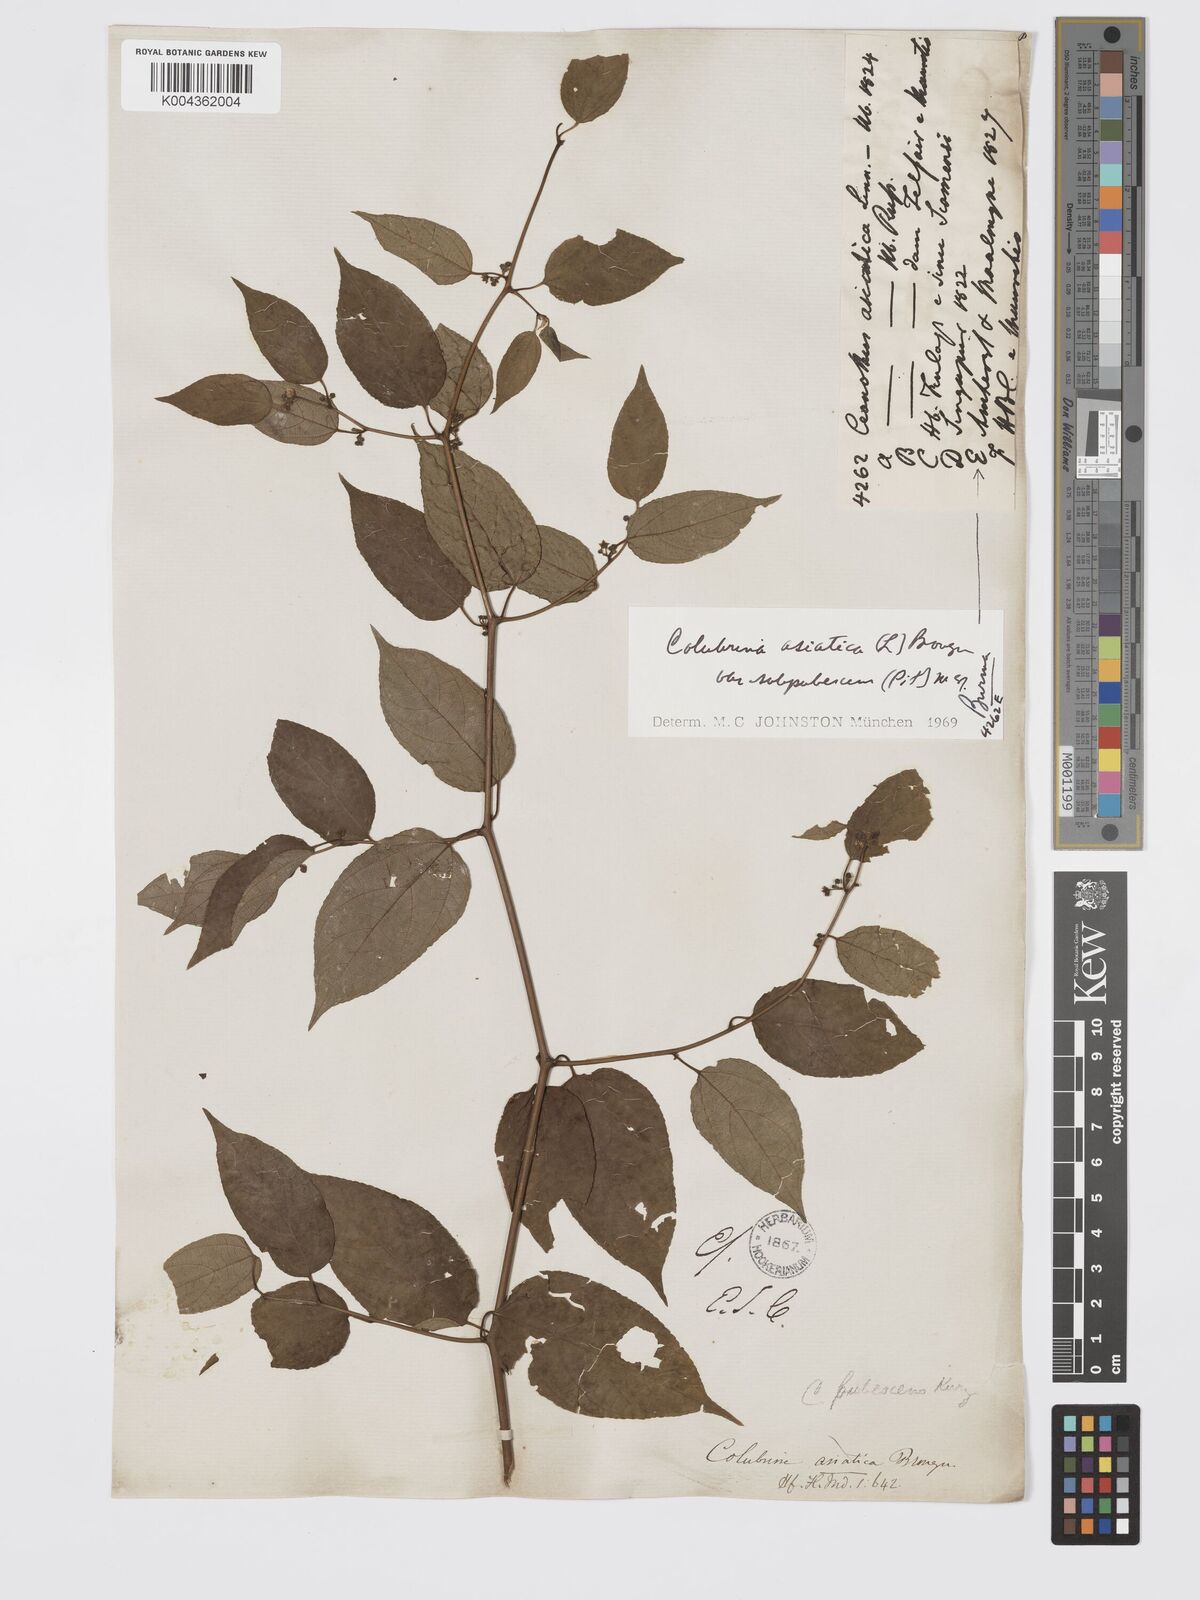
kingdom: Plantae
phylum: Tracheophyta
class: Magnoliopsida
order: Rosales
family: Rhamnaceae
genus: Colubrina
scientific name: Colubrina asiatica
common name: Asian nakedwood
